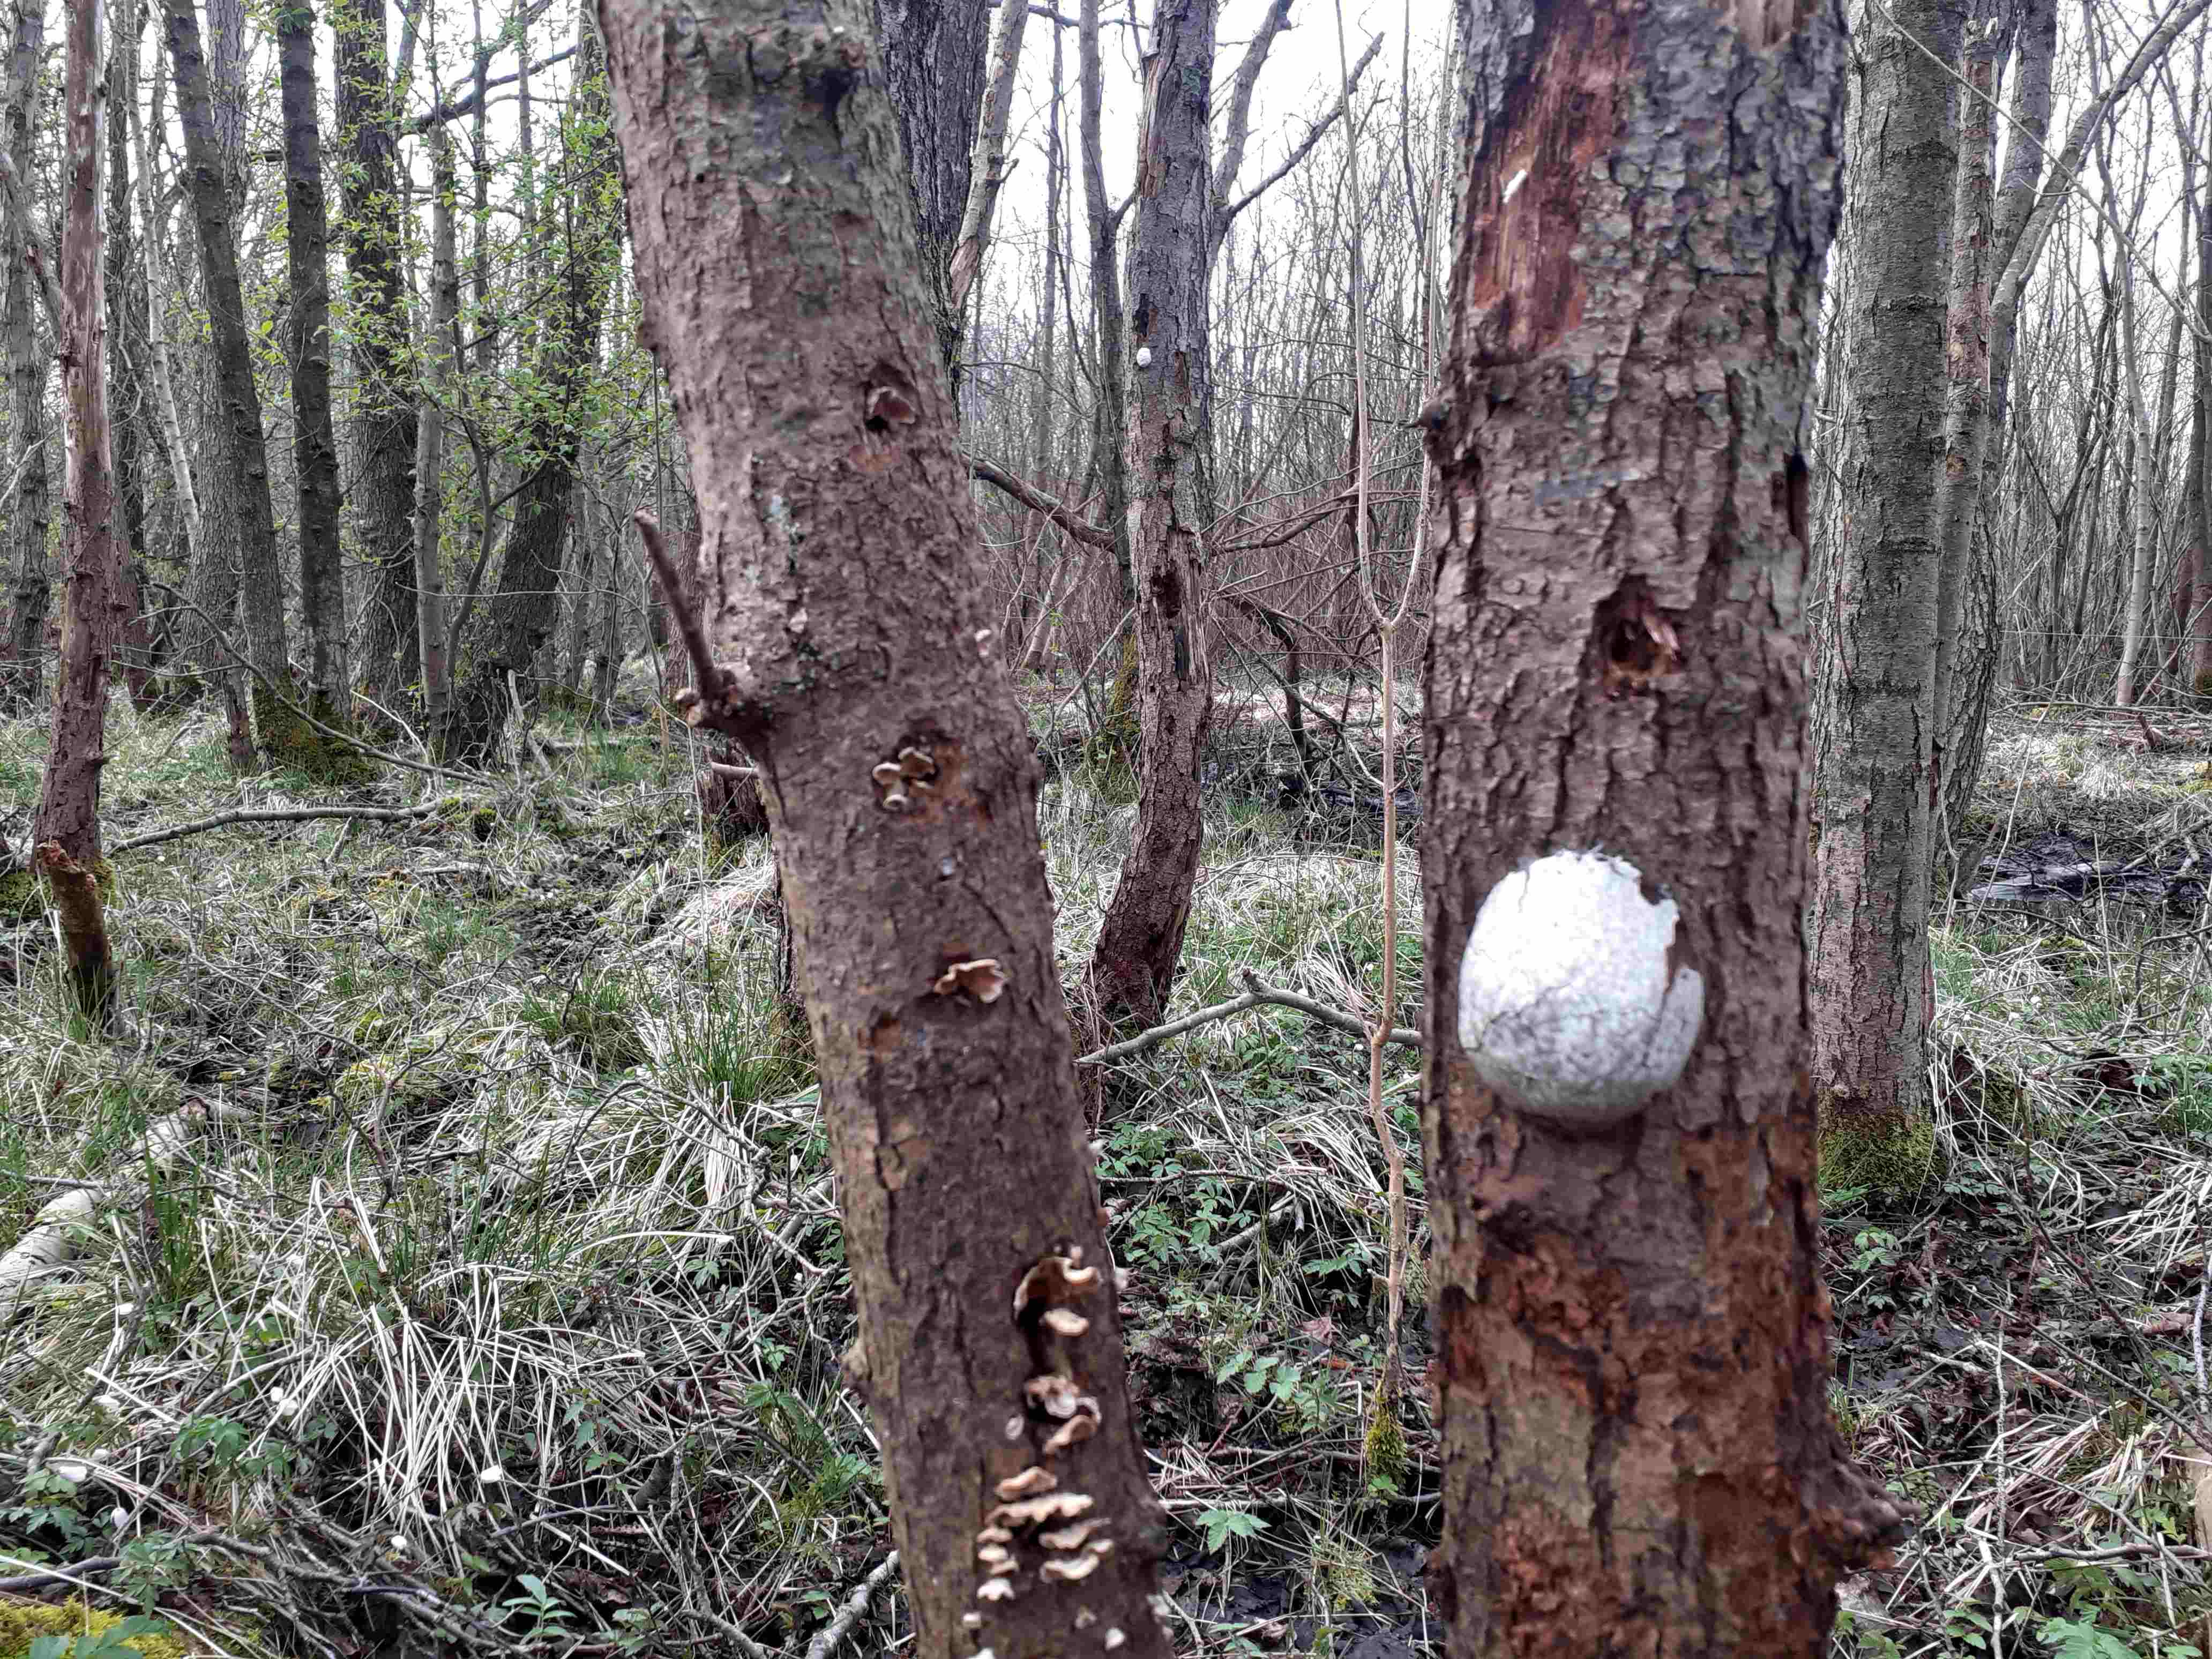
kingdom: Protozoa
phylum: Mycetozoa
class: Myxomycetes
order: Cribrariales
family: Tubiferaceae
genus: Reticularia
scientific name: Reticularia lycoperdon
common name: skinnende støvpude
